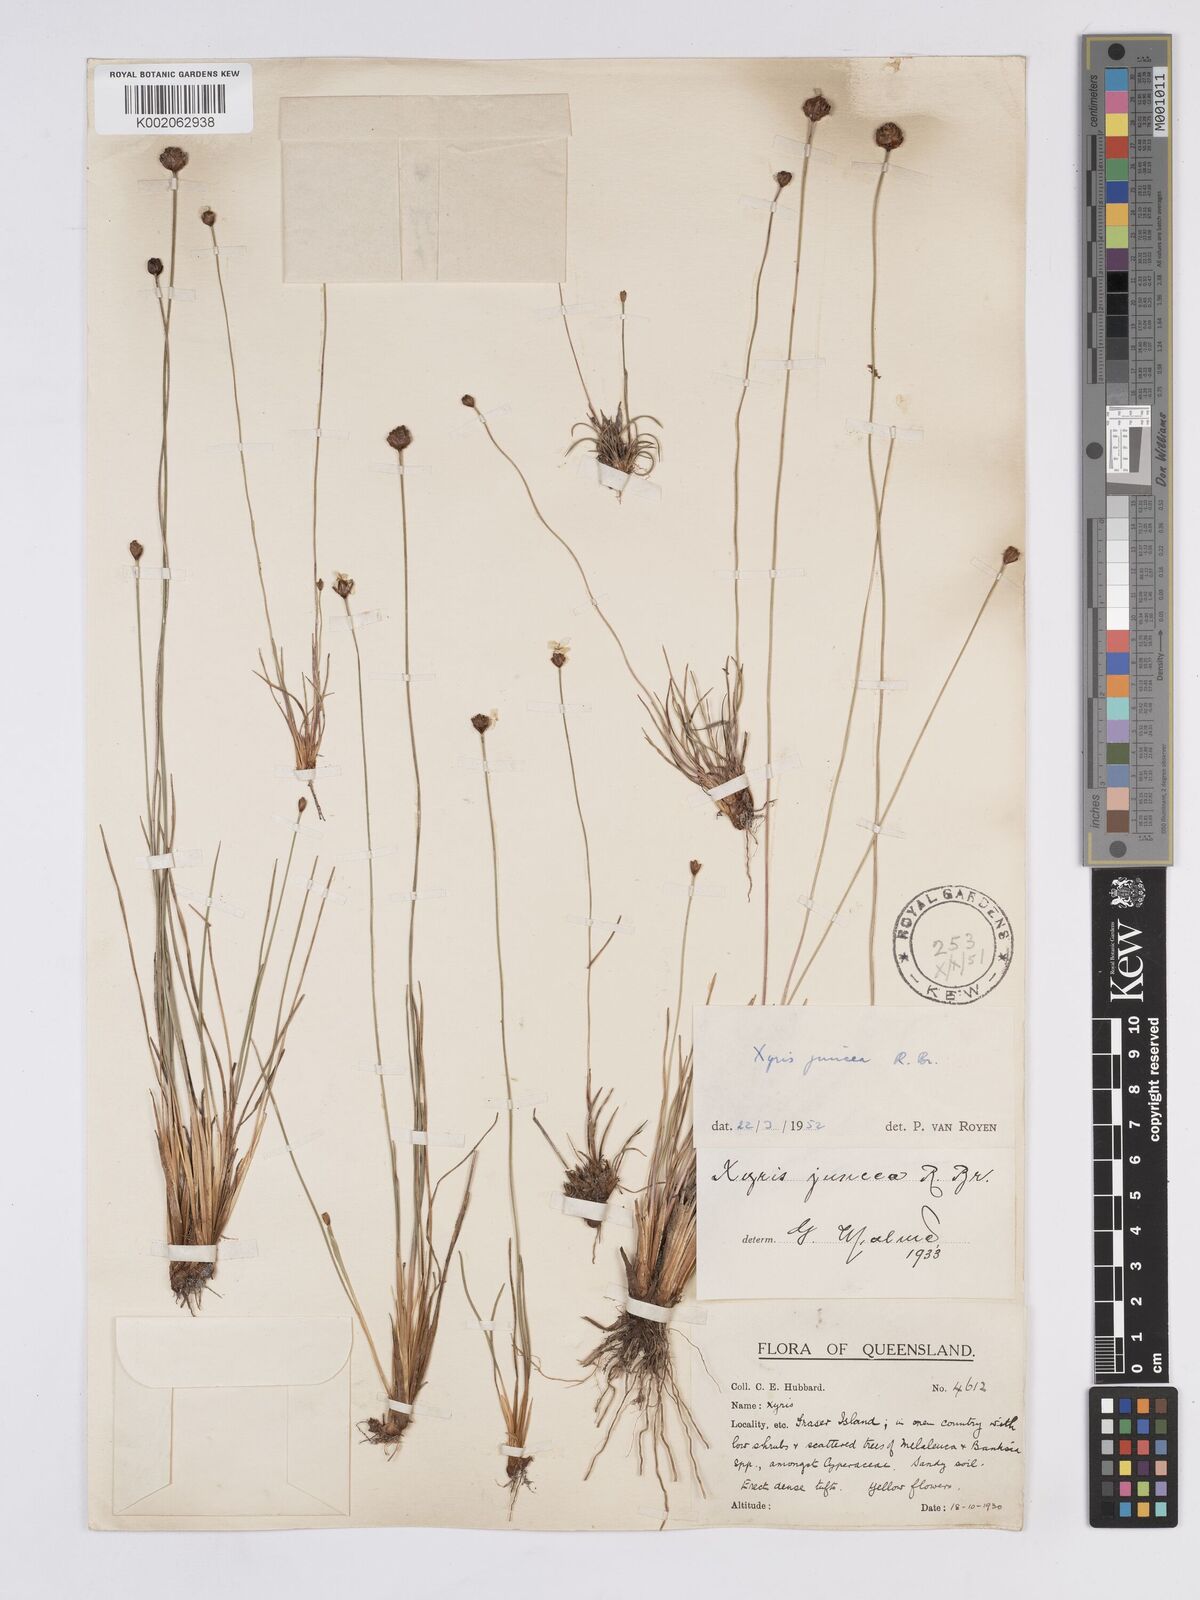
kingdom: Plantae
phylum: Tracheophyta
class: Liliopsida
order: Poales
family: Xyridaceae
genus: Xyris
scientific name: Xyris juncea
